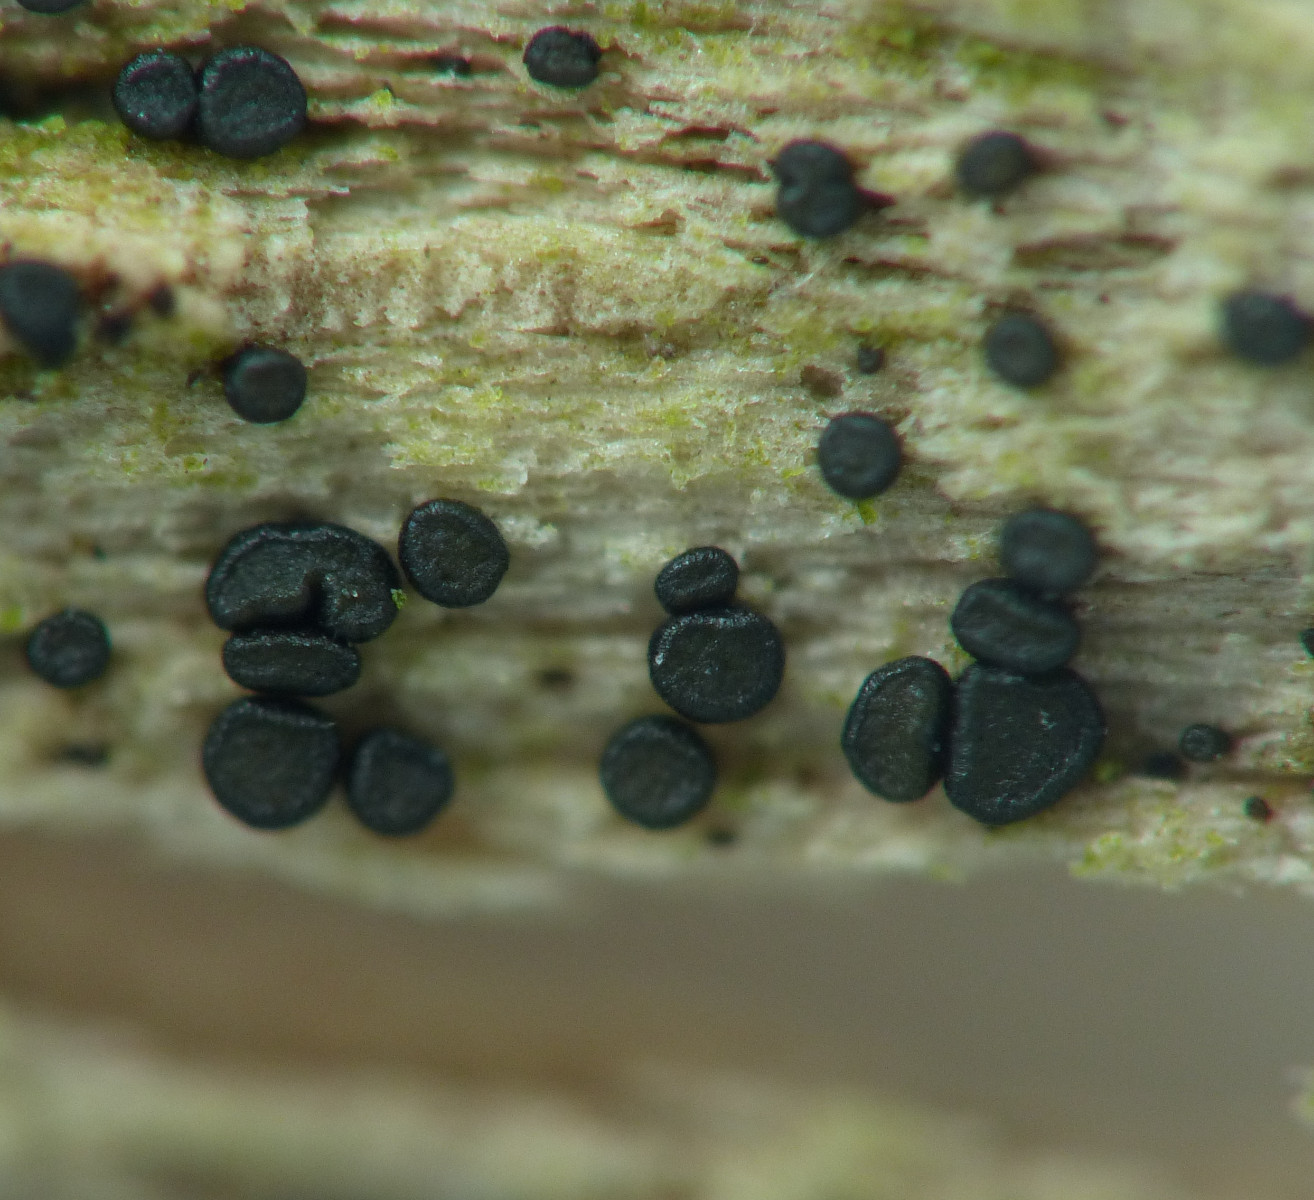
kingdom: Fungi
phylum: Ascomycota
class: Leotiomycetes
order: Helotiales
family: Helotiaceae
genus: Durella
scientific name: Durella connivens
